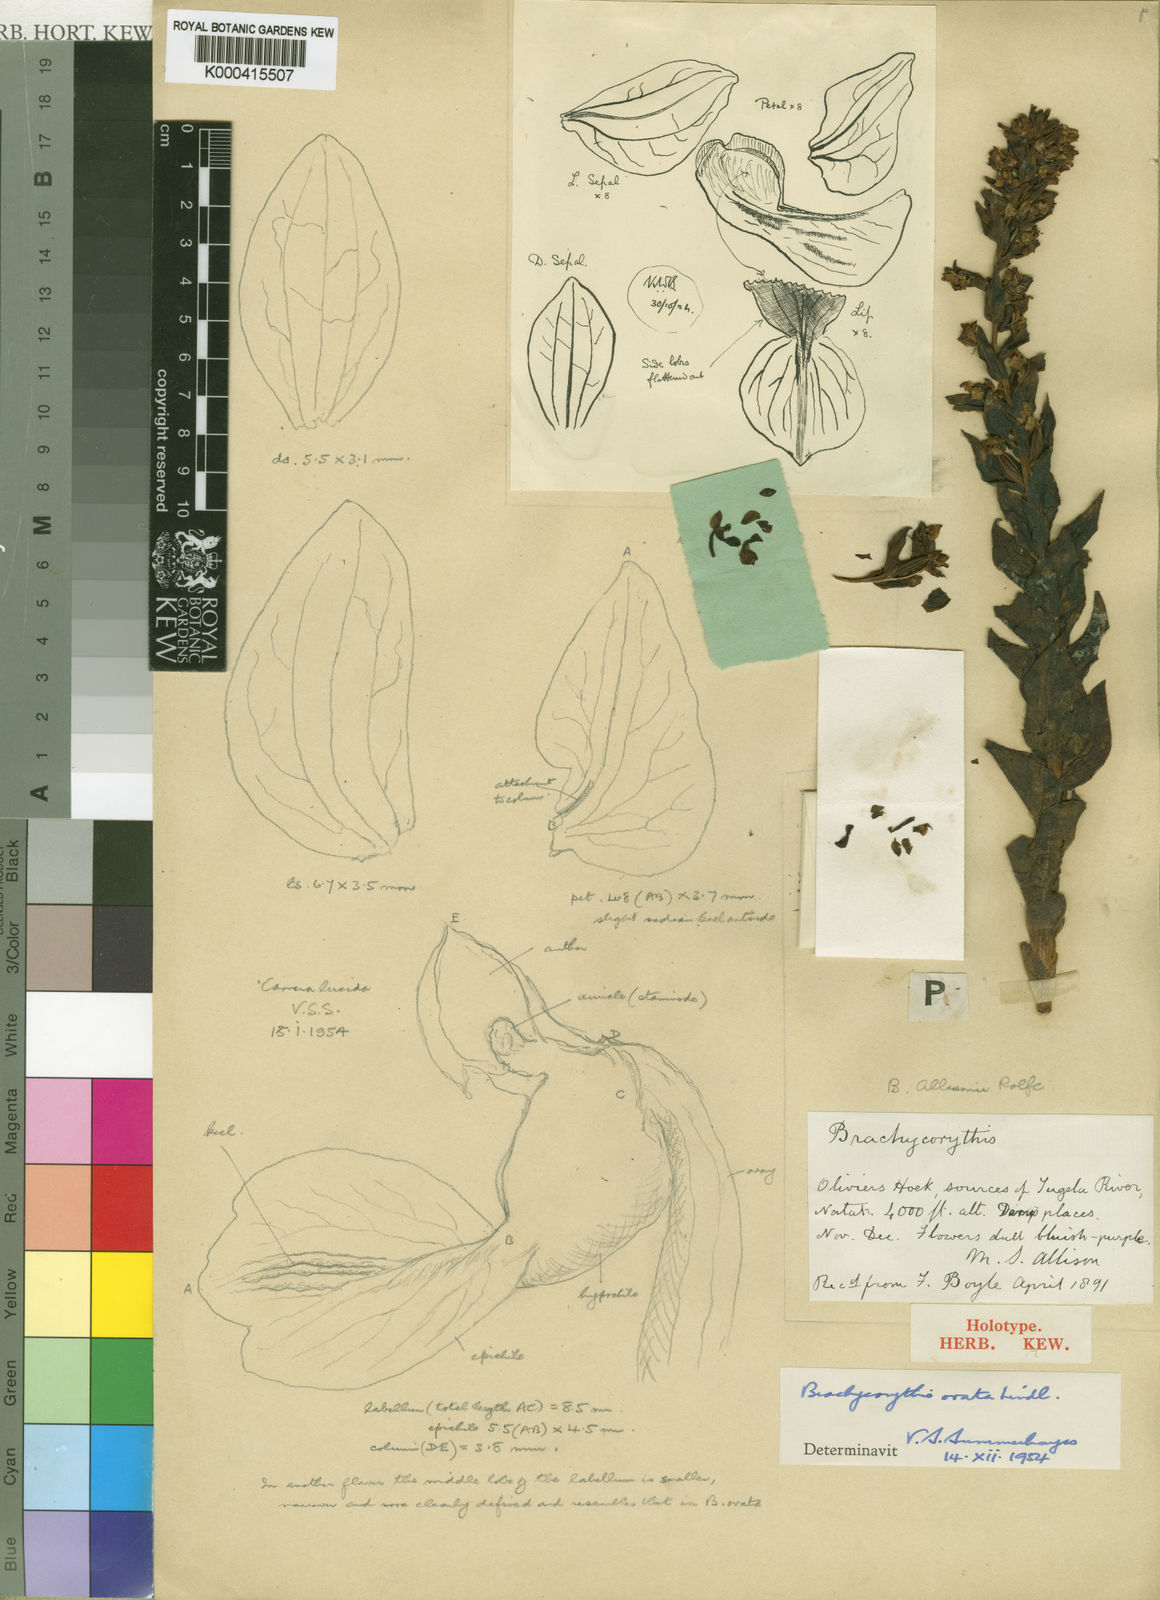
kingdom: Plantae
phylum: Tracheophyta
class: Liliopsida
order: Asparagales
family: Orchidaceae
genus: Brachycorythis
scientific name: Brachycorythis ovata
